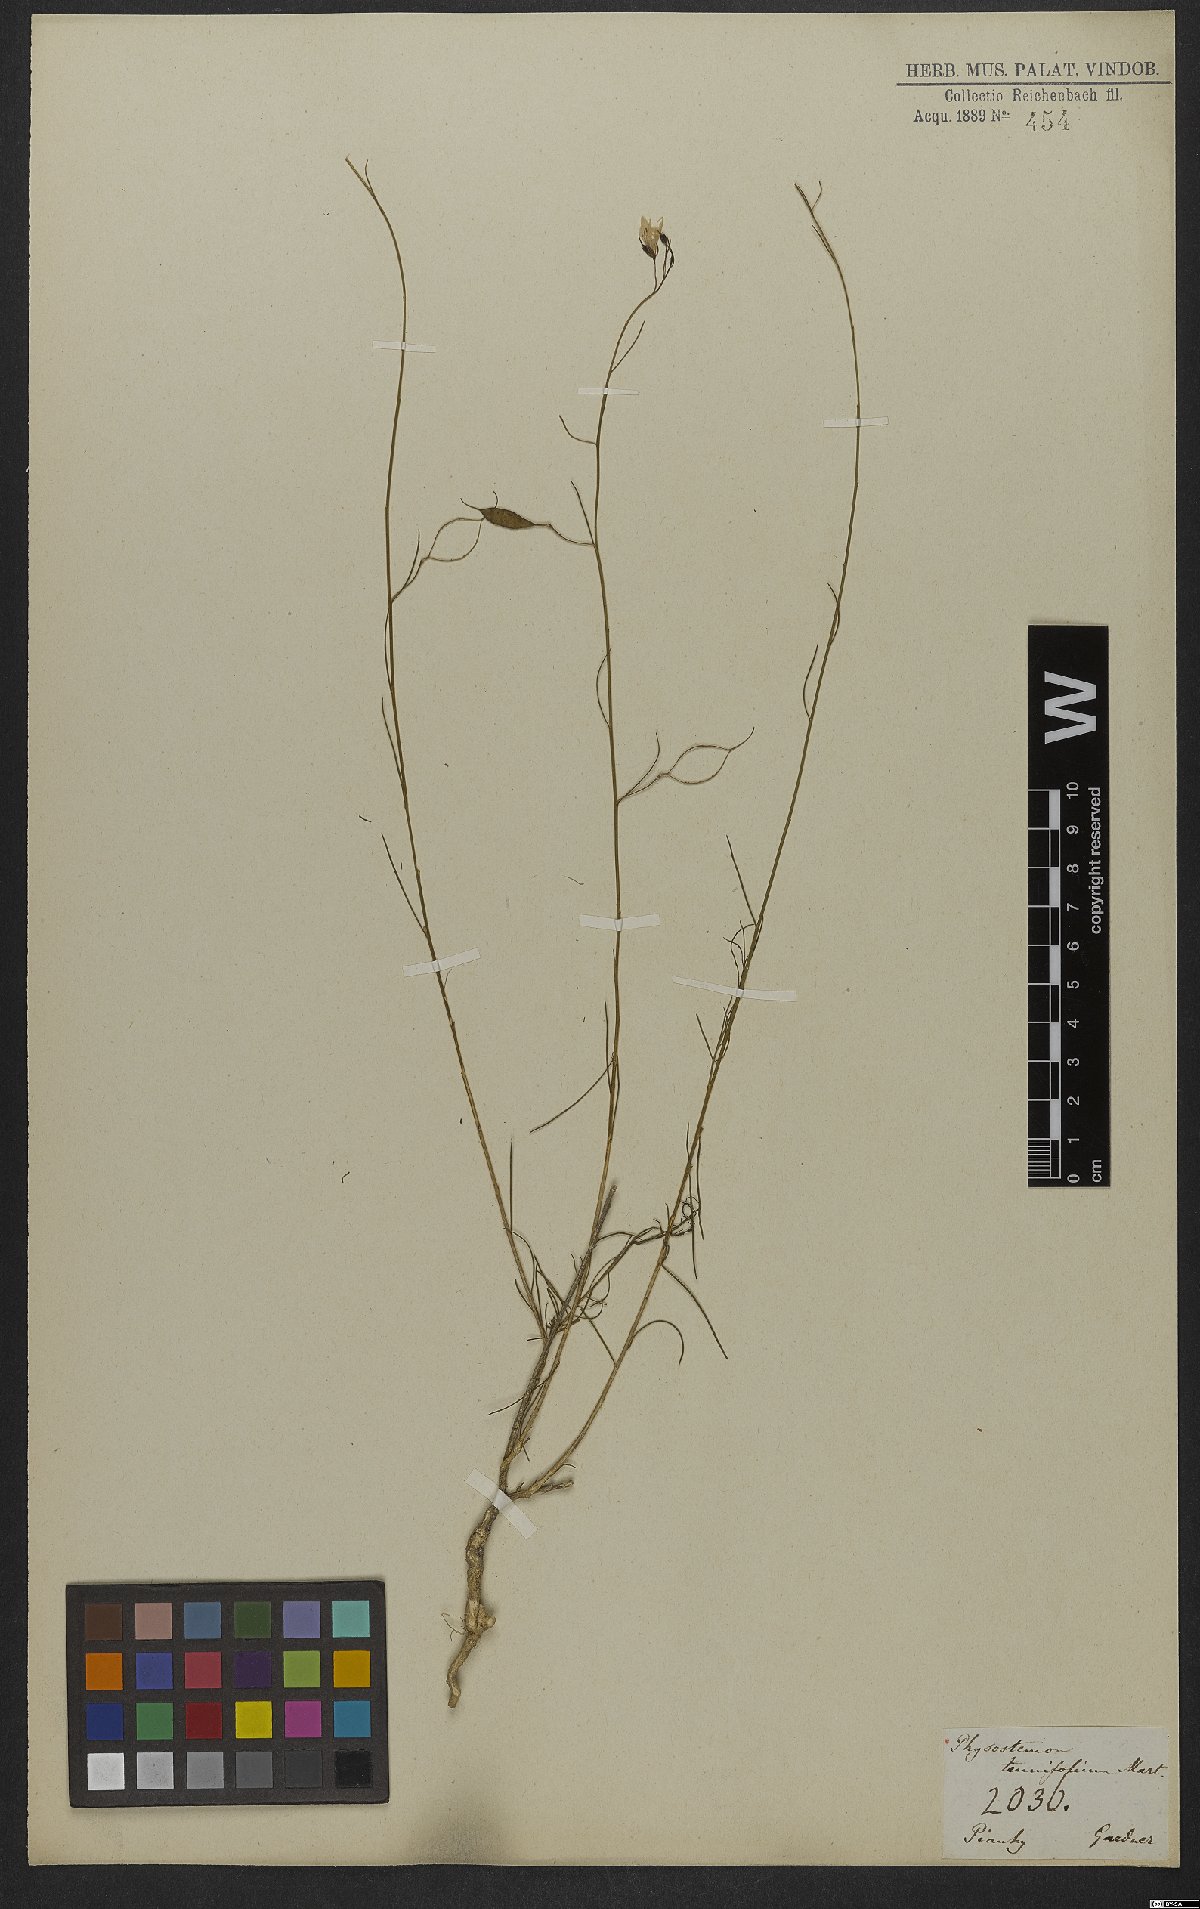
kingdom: Plantae
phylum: Tracheophyta
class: Magnoliopsida
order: Brassicales
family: Cleomaceae
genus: Physostemon
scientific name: Physostemon tenuifolius
